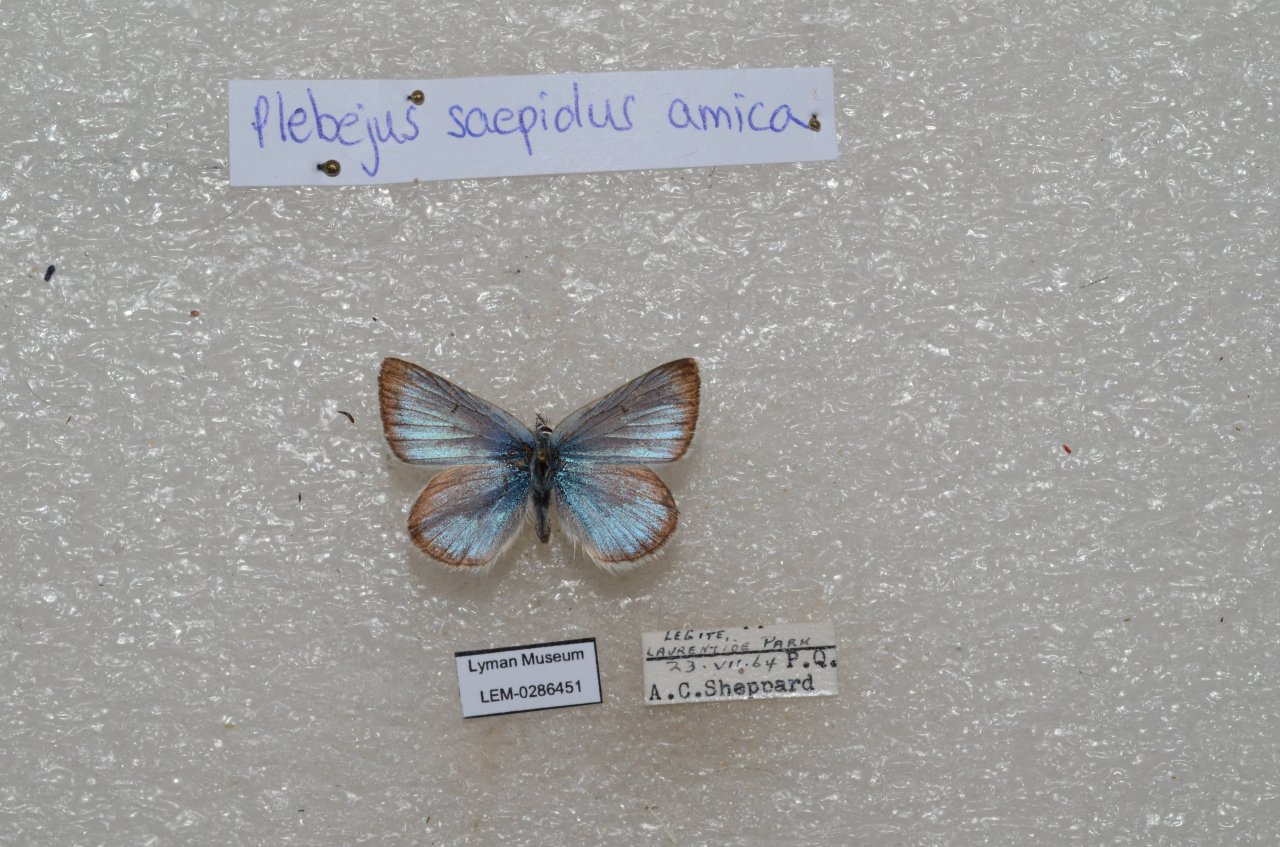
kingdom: Animalia
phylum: Arthropoda
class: Insecta
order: Lepidoptera
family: Lycaenidae
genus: Plebejus
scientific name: Plebejus saepiolus
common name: Greenish Blue
